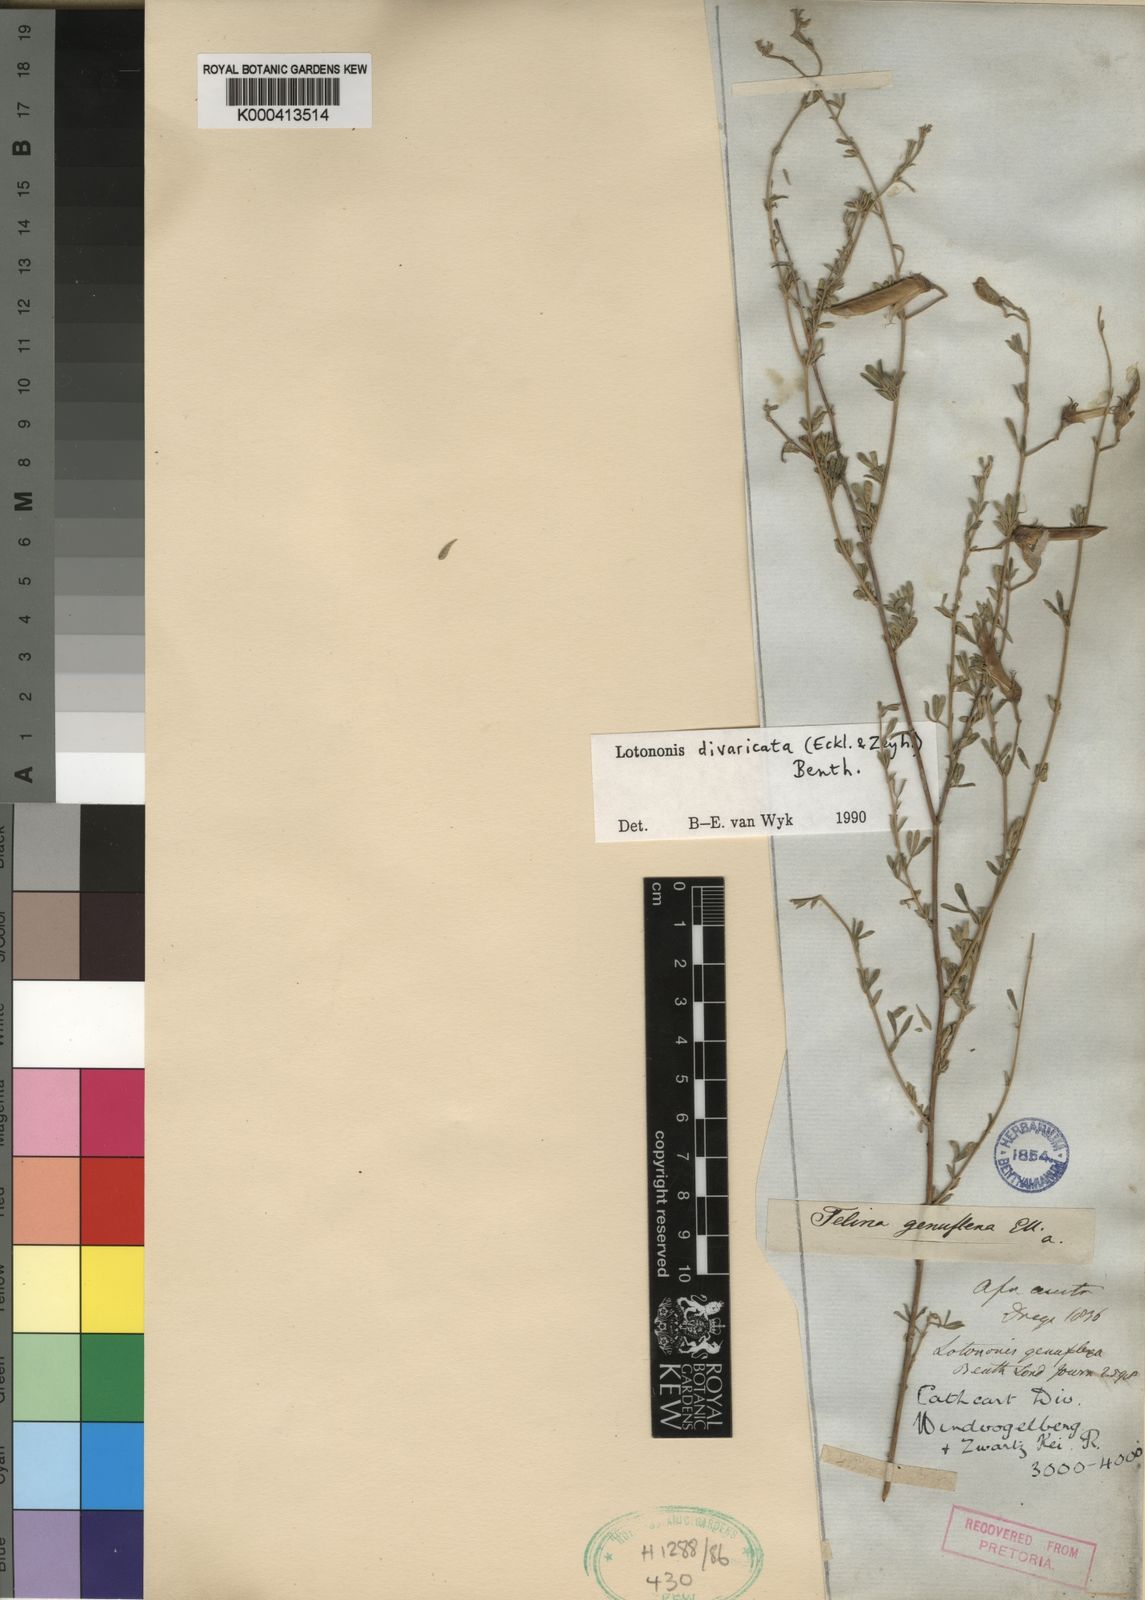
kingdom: Plantae
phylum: Tracheophyta
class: Magnoliopsida
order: Fabales
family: Fabaceae
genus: Lotononis
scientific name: Lotononis divaricata
